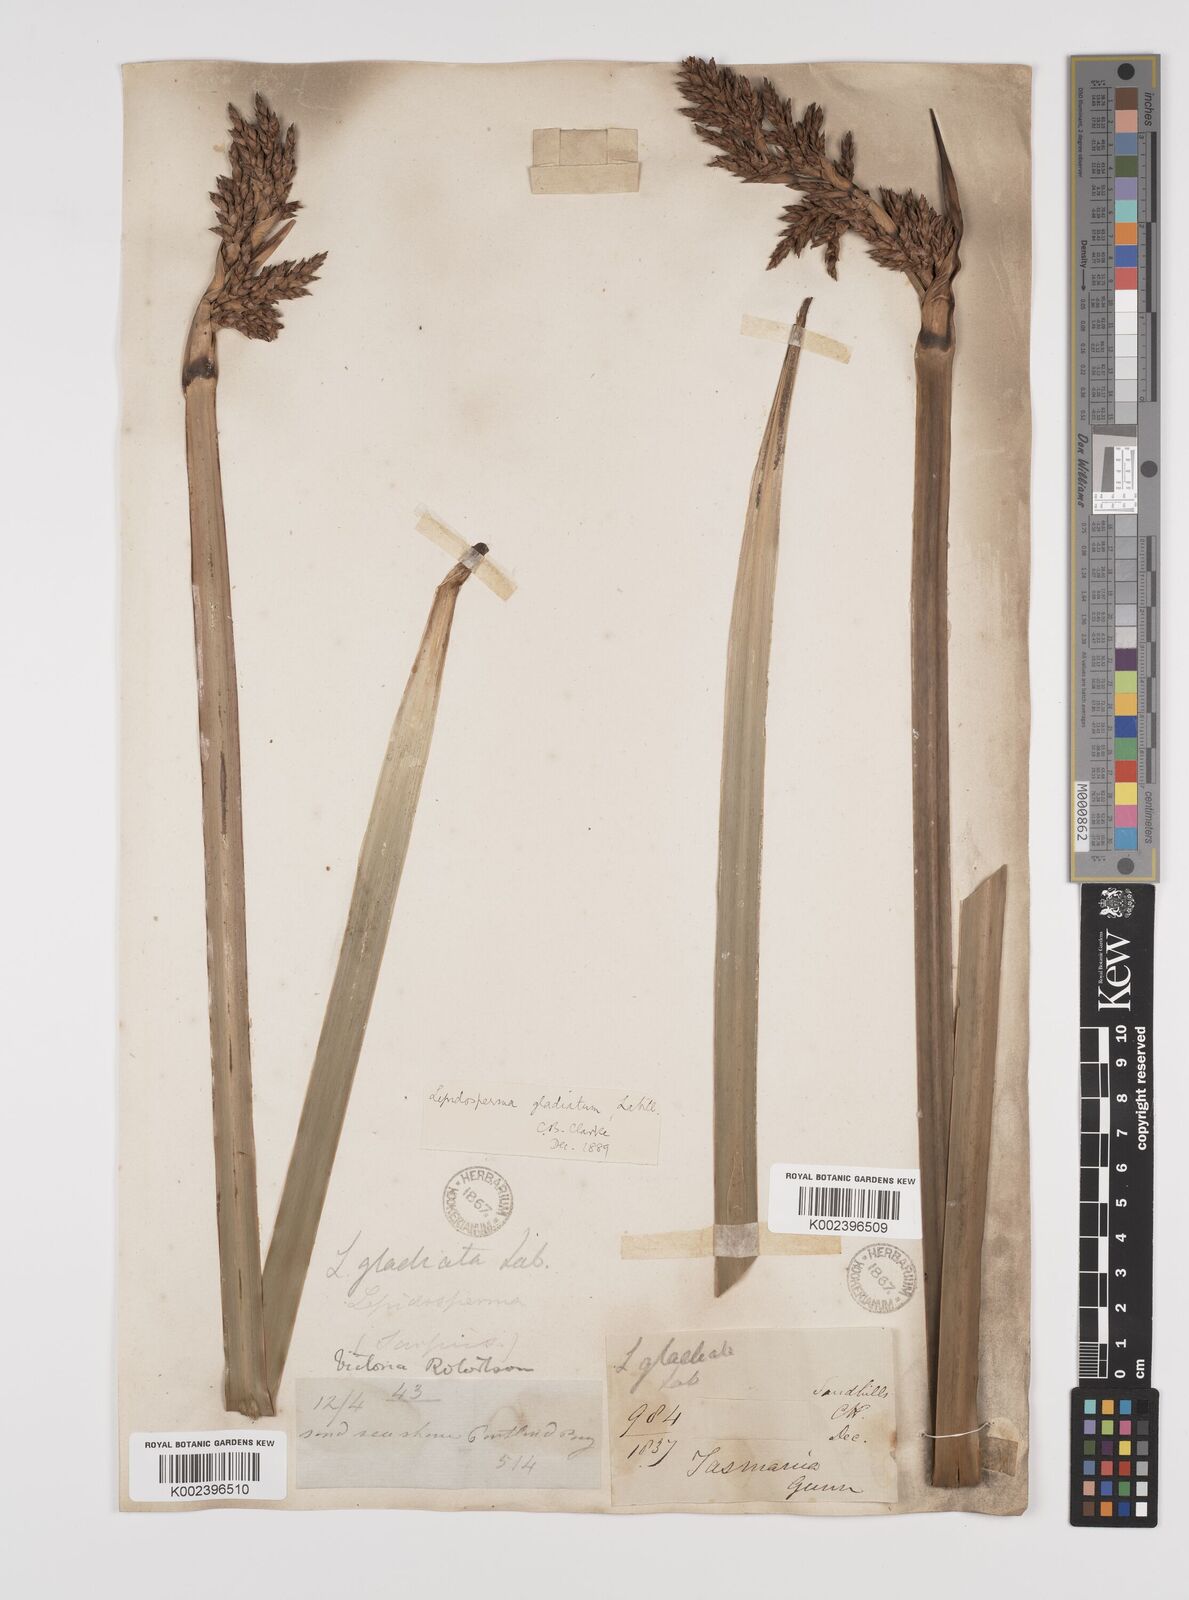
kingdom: Plantae
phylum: Tracheophyta
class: Liliopsida
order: Poales
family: Cyperaceae
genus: Lepidosperma
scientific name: Lepidosperma gladiatum
